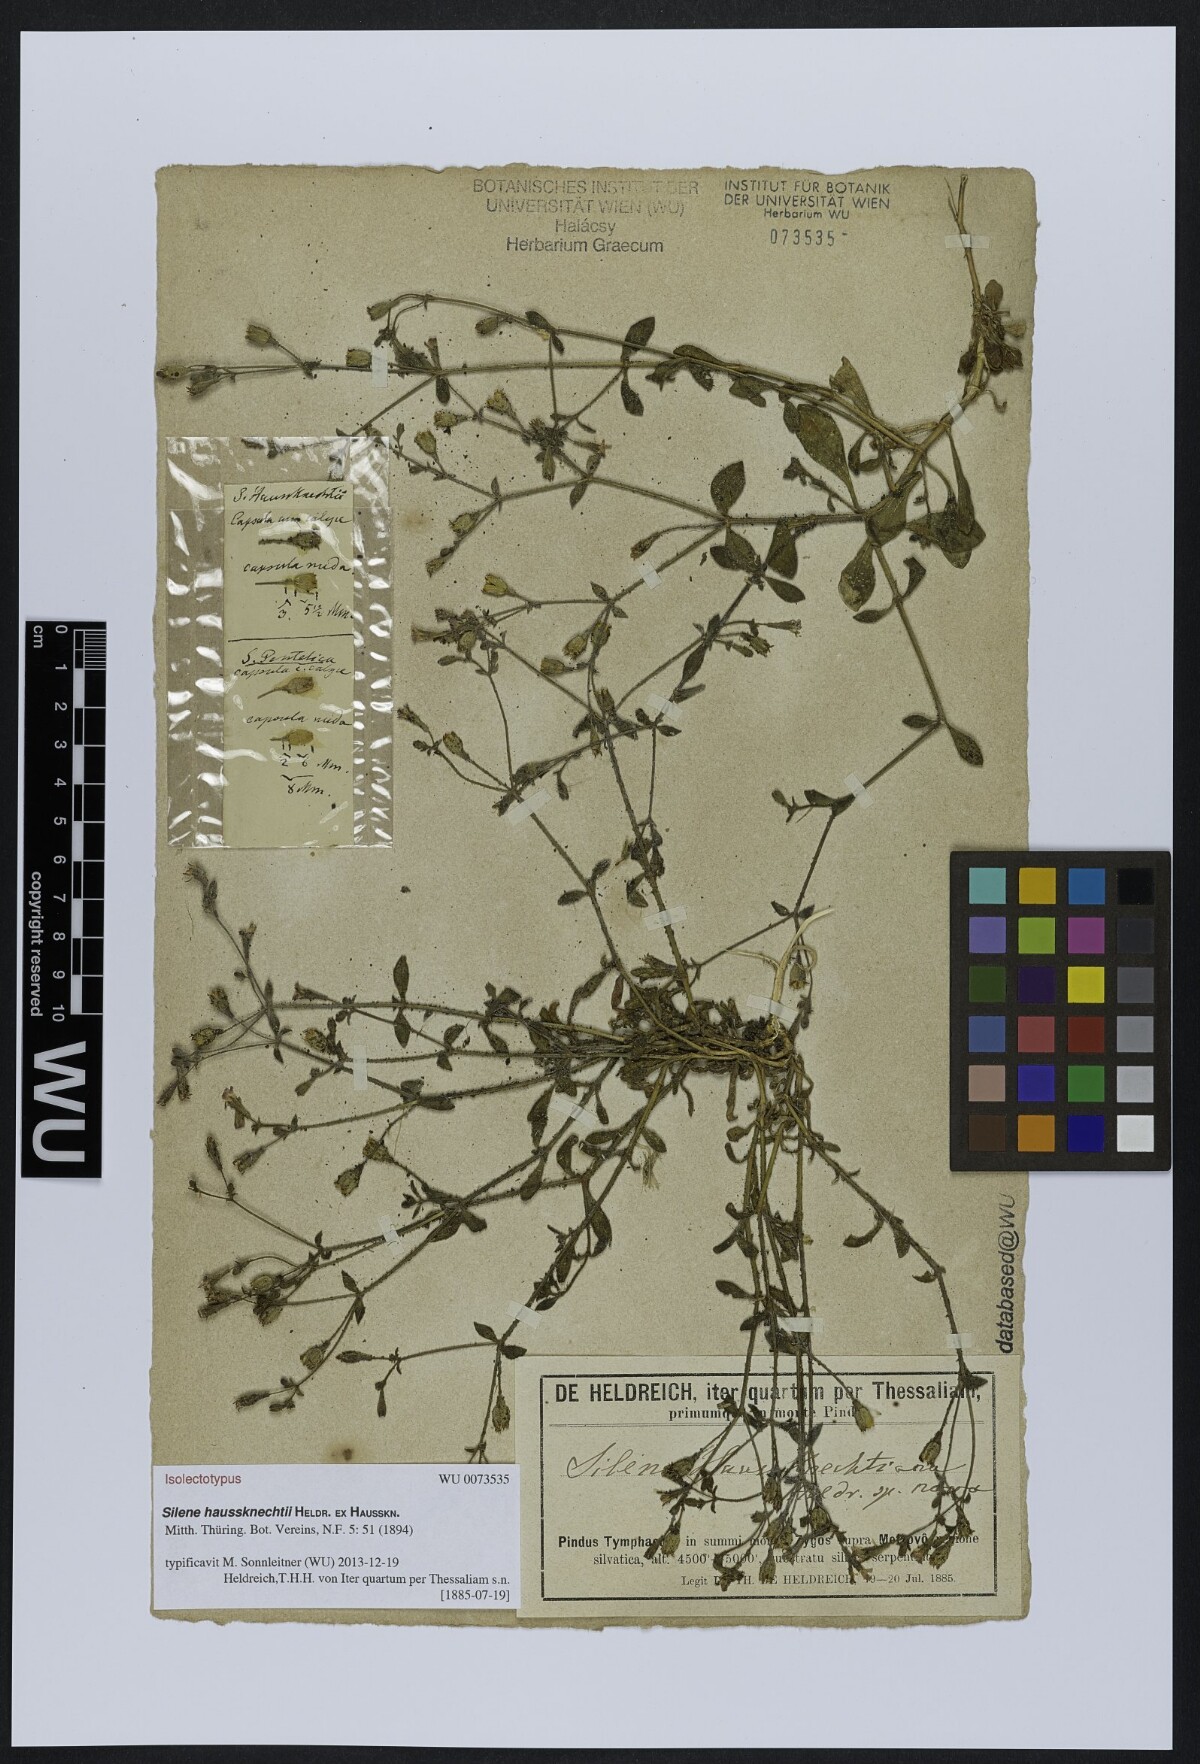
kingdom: Plantae
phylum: Tracheophyta
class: Magnoliopsida
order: Caryophyllales
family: Caryophyllaceae
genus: Silene
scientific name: Silene haussknechtii
